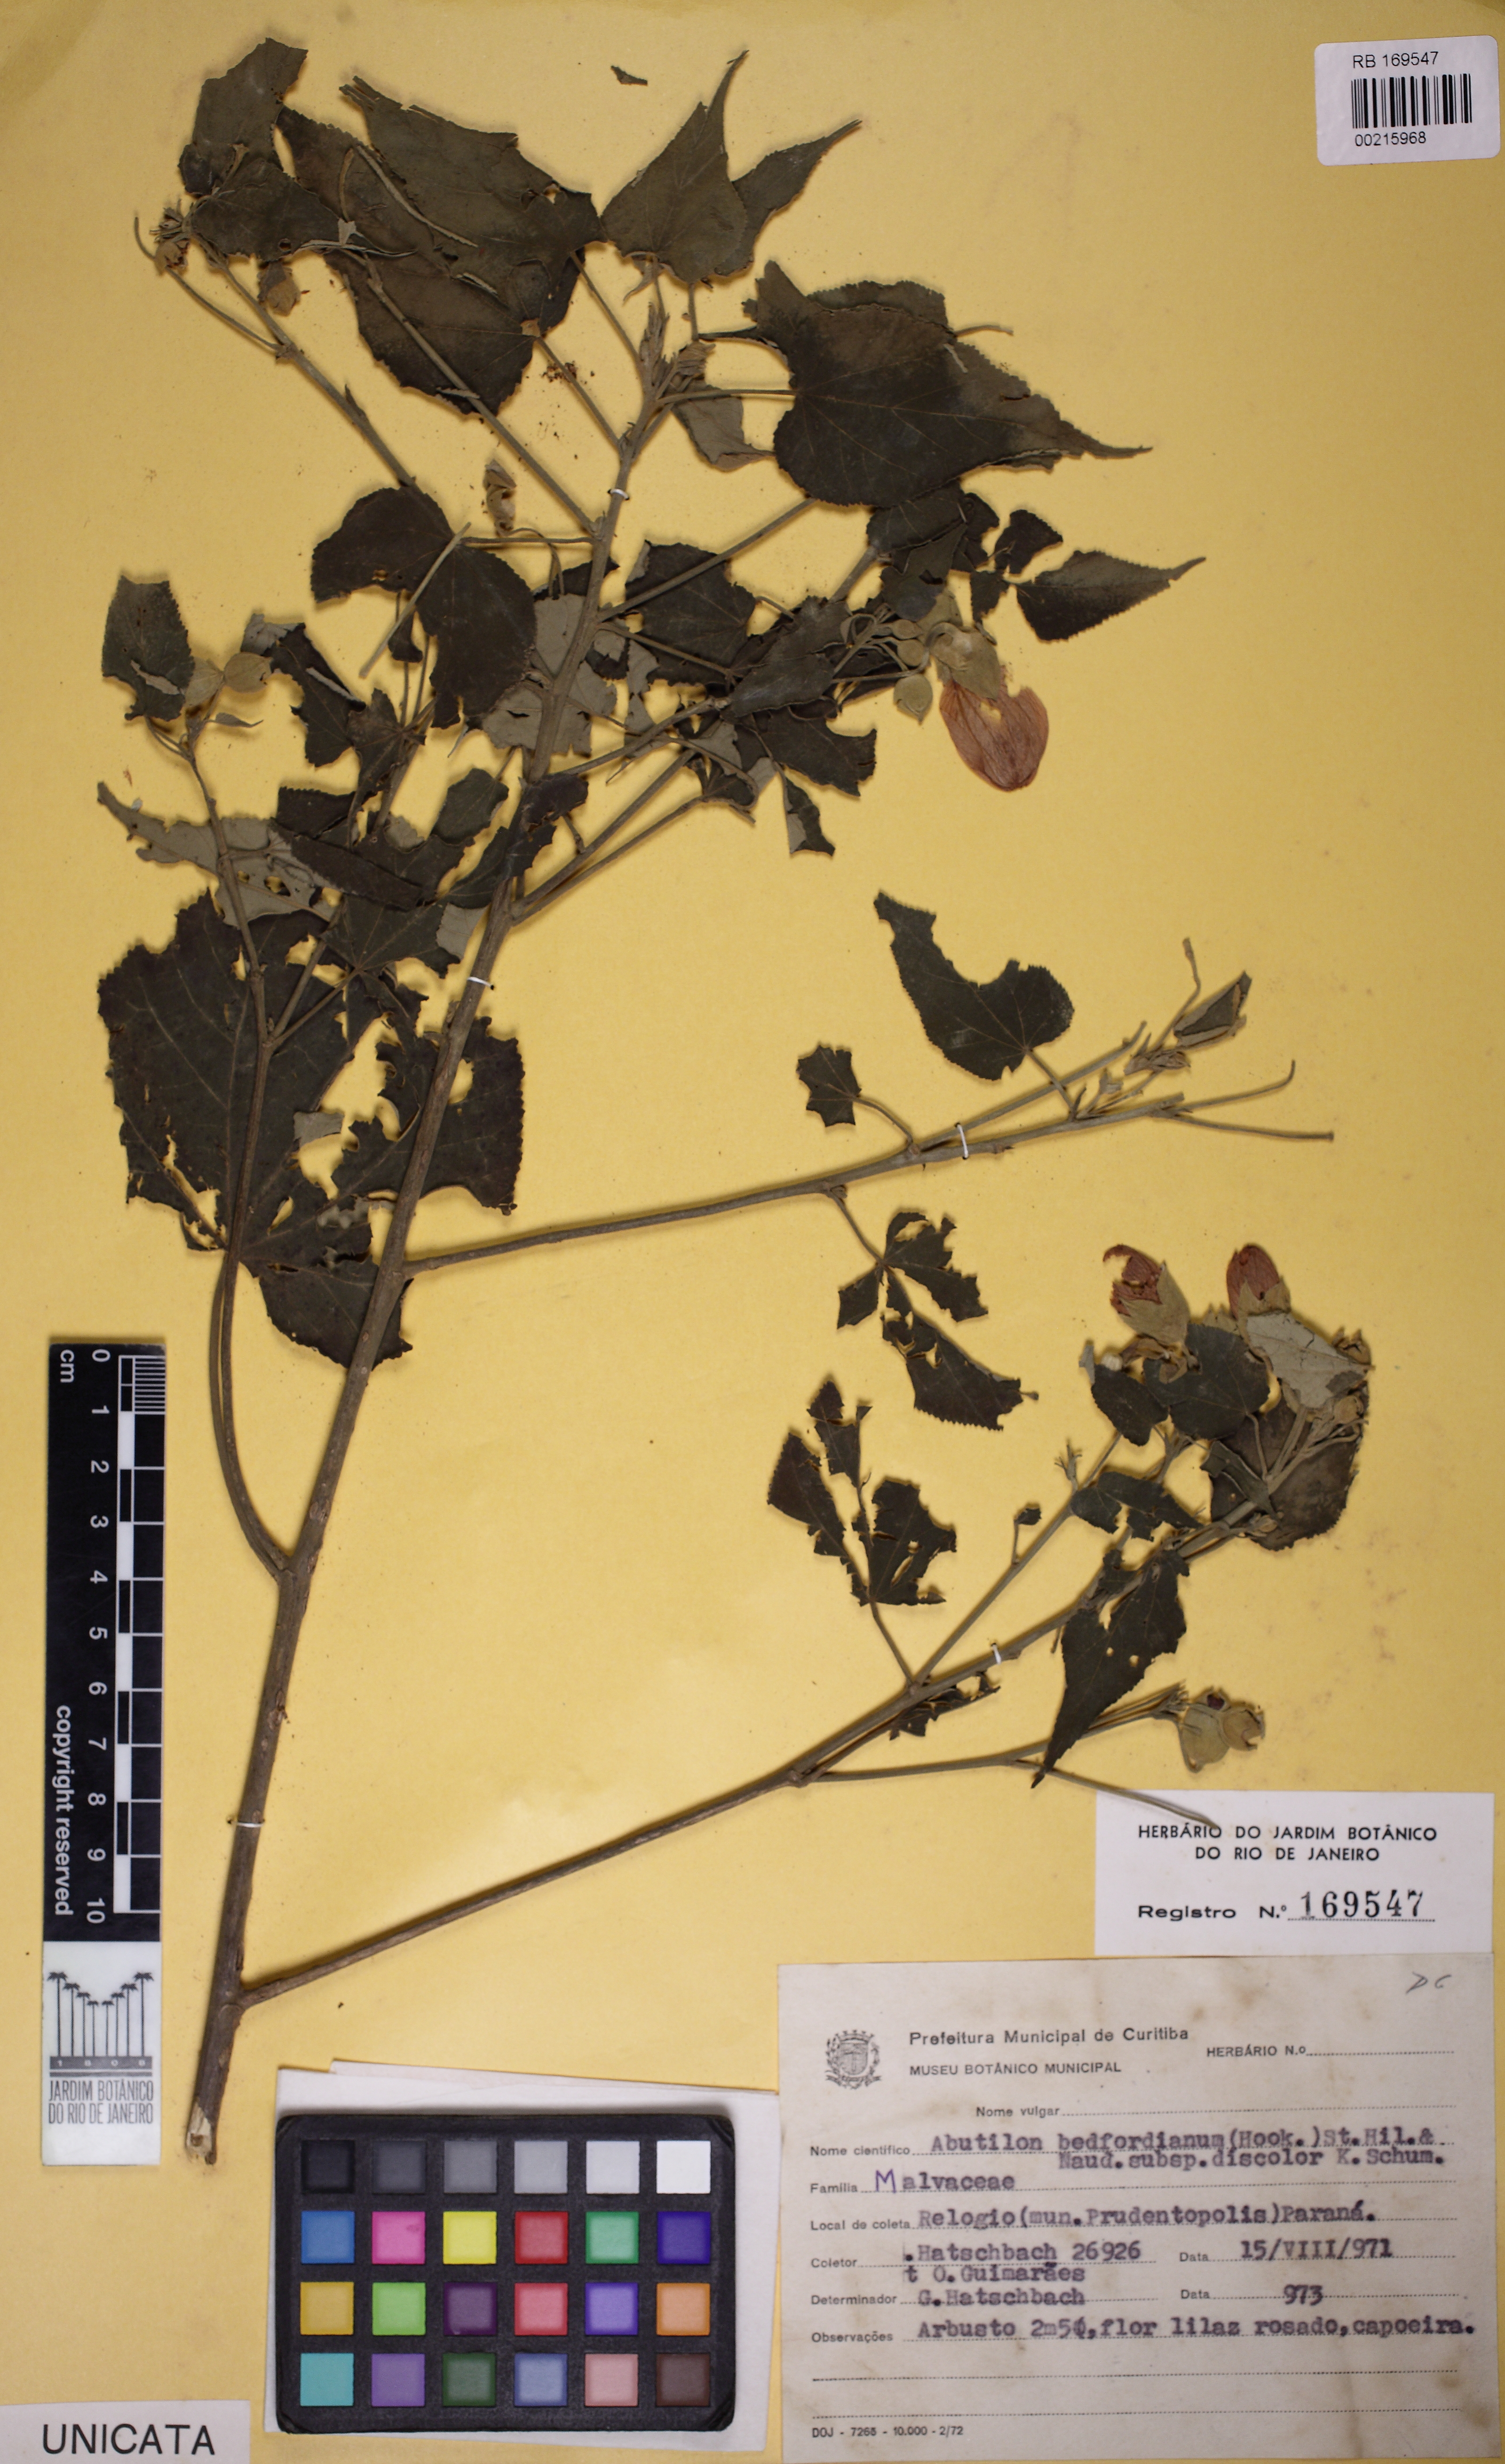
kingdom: Plantae
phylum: Tracheophyta
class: Magnoliopsida
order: Malvales
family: Malvaceae
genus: Callianthe
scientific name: Callianthe bedfordiana
